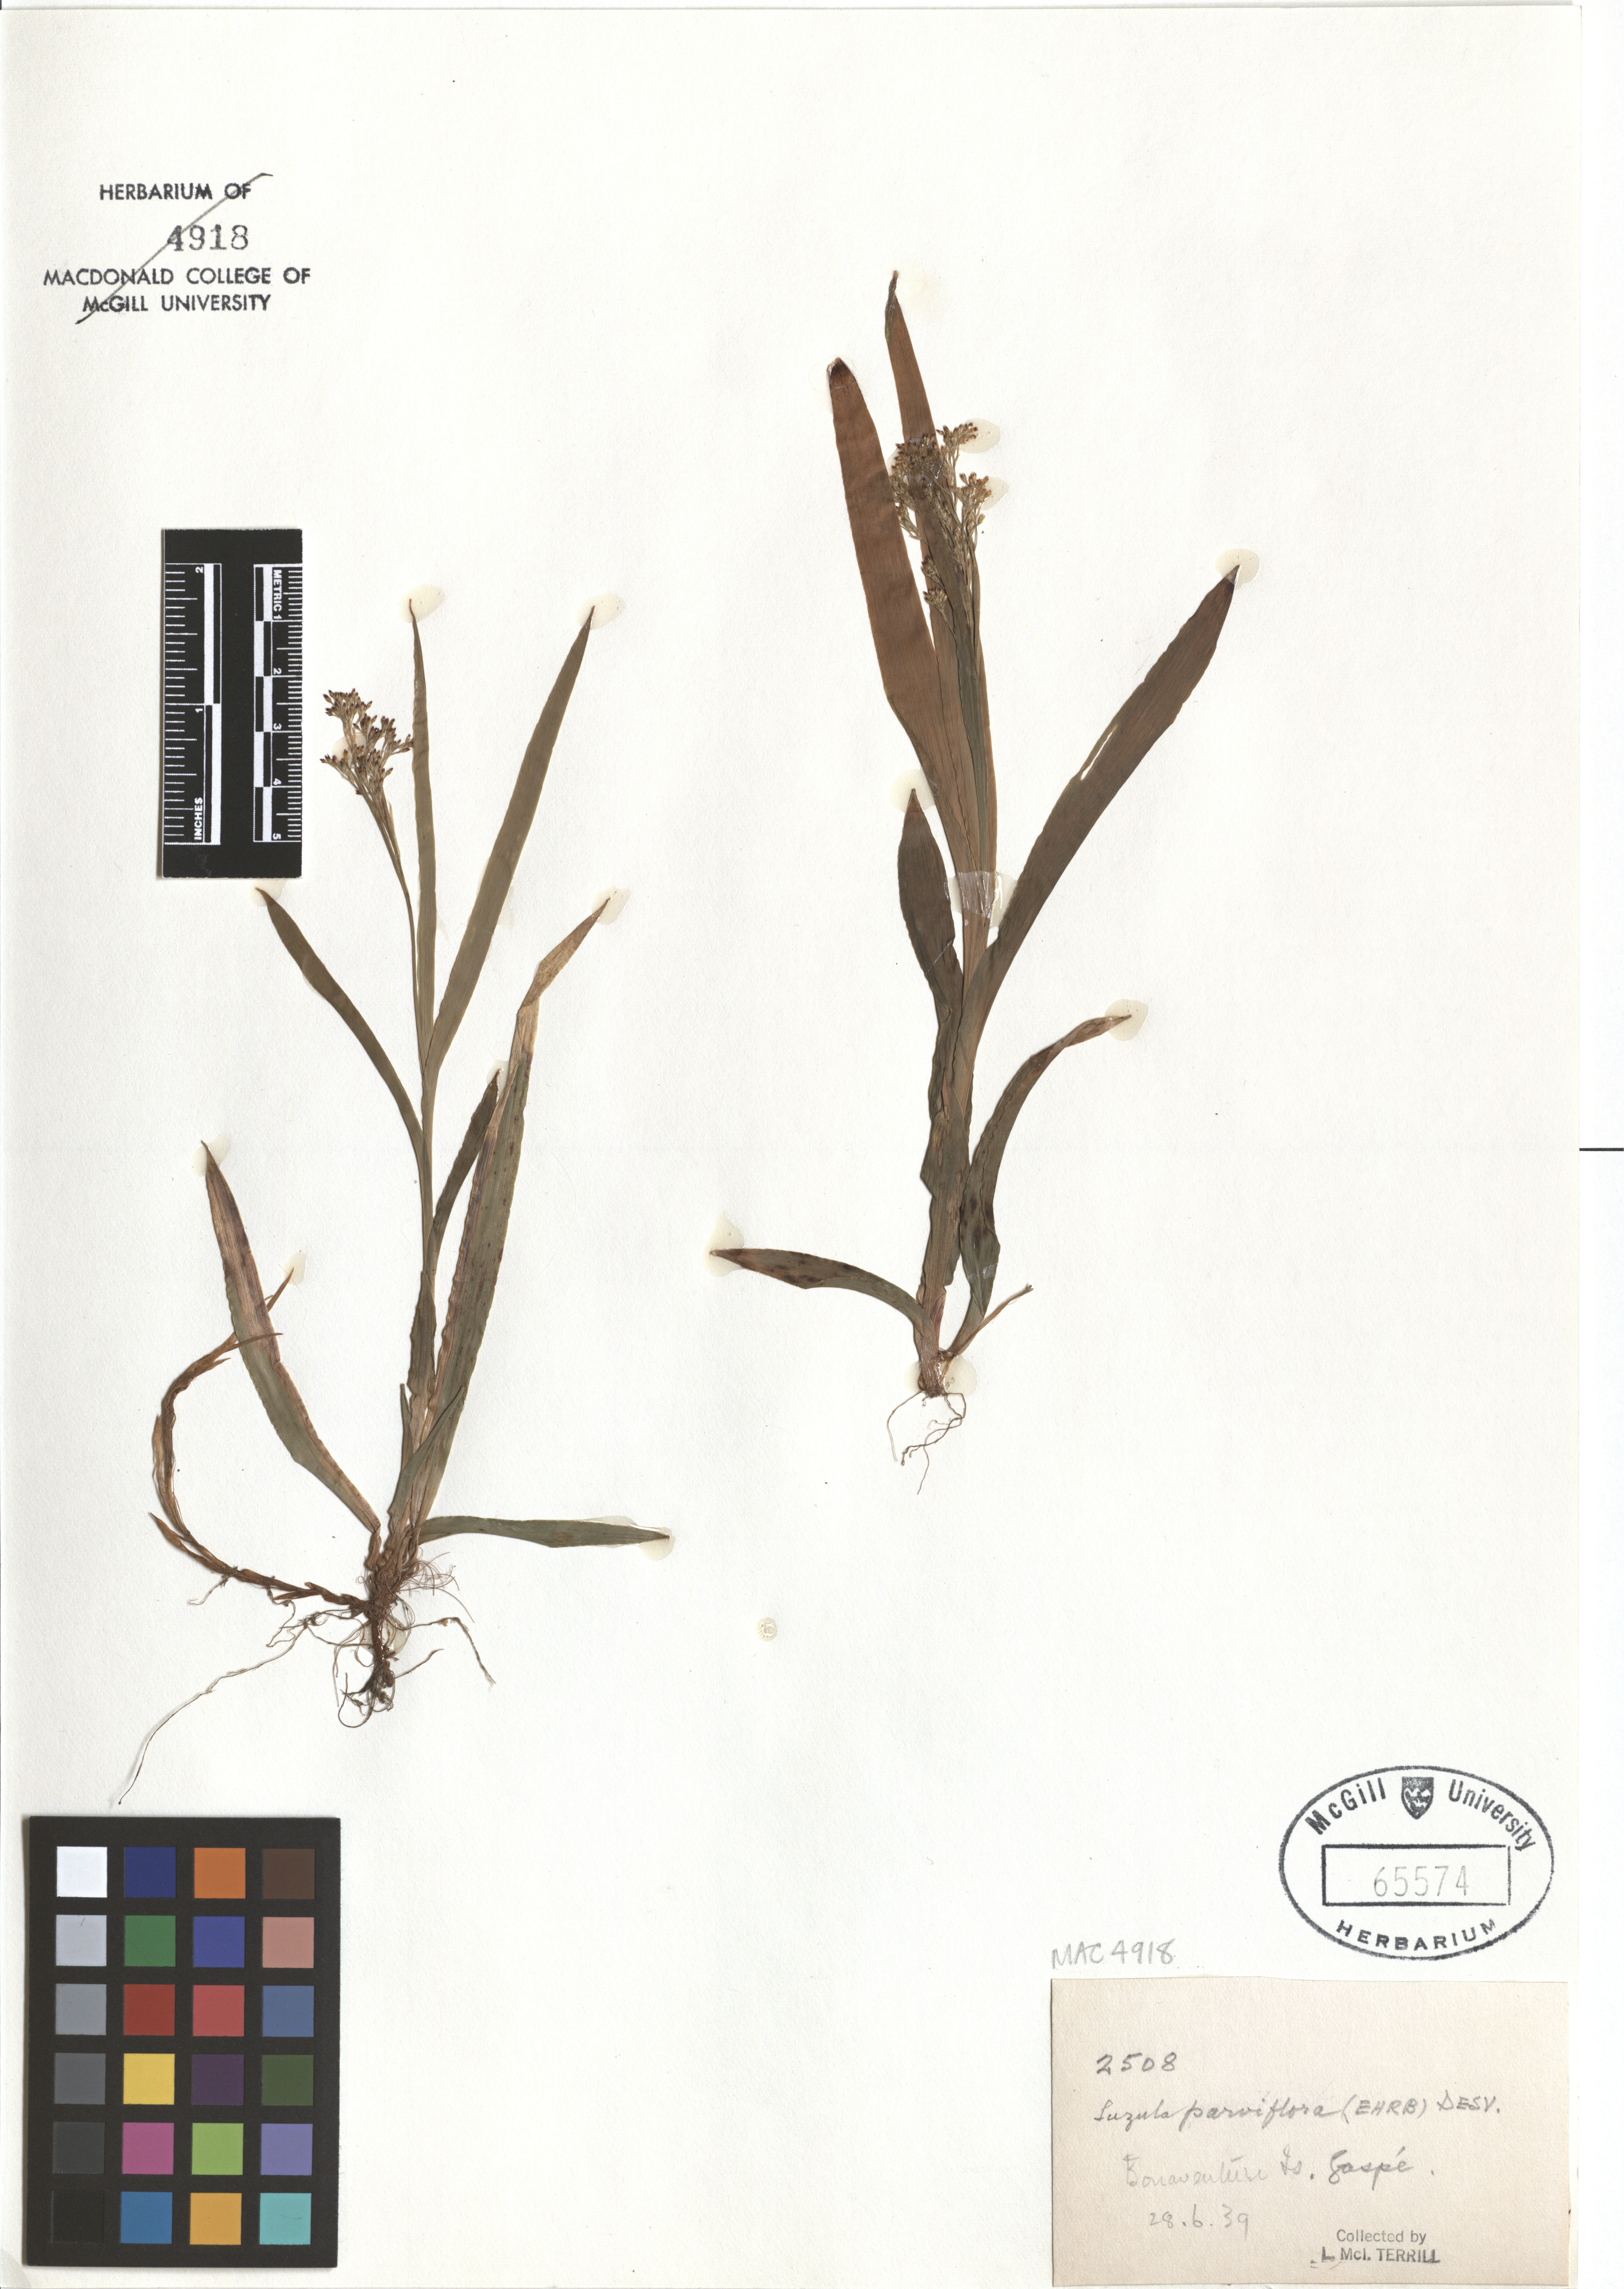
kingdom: Plantae
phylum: Tracheophyta
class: Liliopsida
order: Poales
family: Juncaceae
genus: Luzula
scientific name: Luzula parviflora
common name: Millet woodrush
